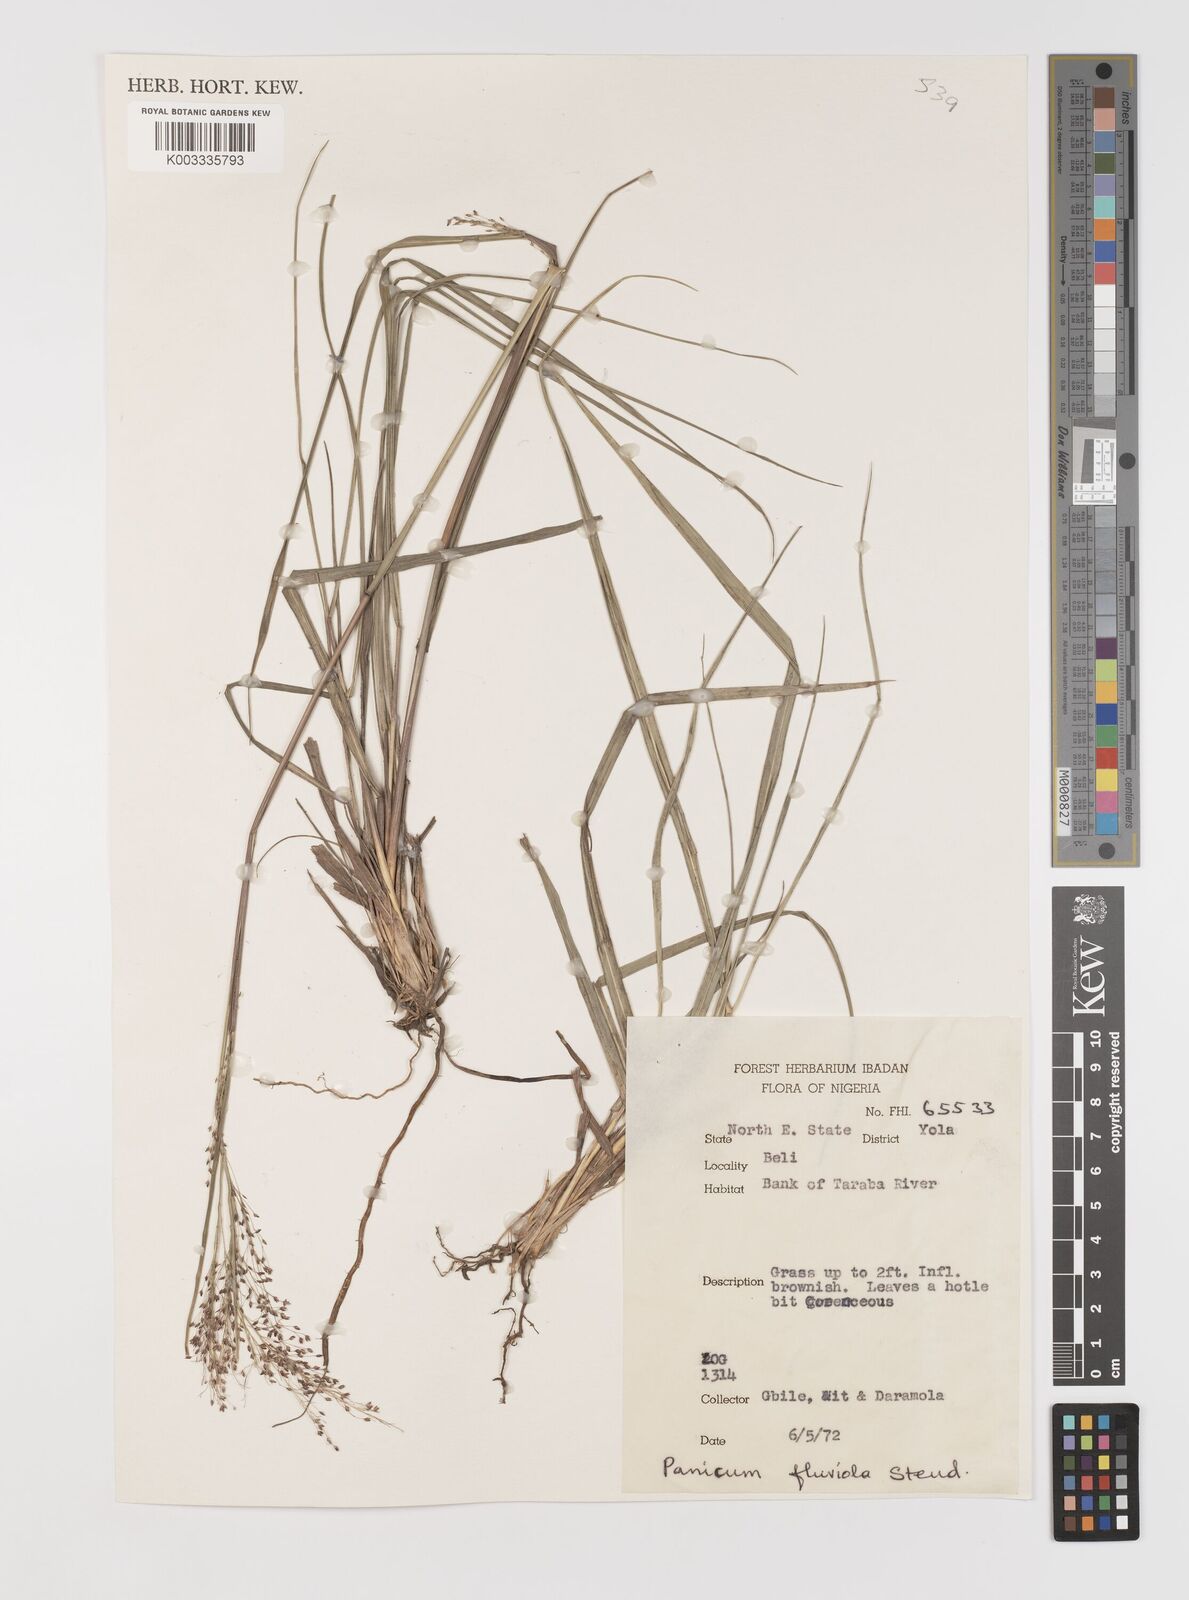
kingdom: Plantae
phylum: Tracheophyta
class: Liliopsida
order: Poales
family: Poaceae
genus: Panicum
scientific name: Panicum fluviicola
